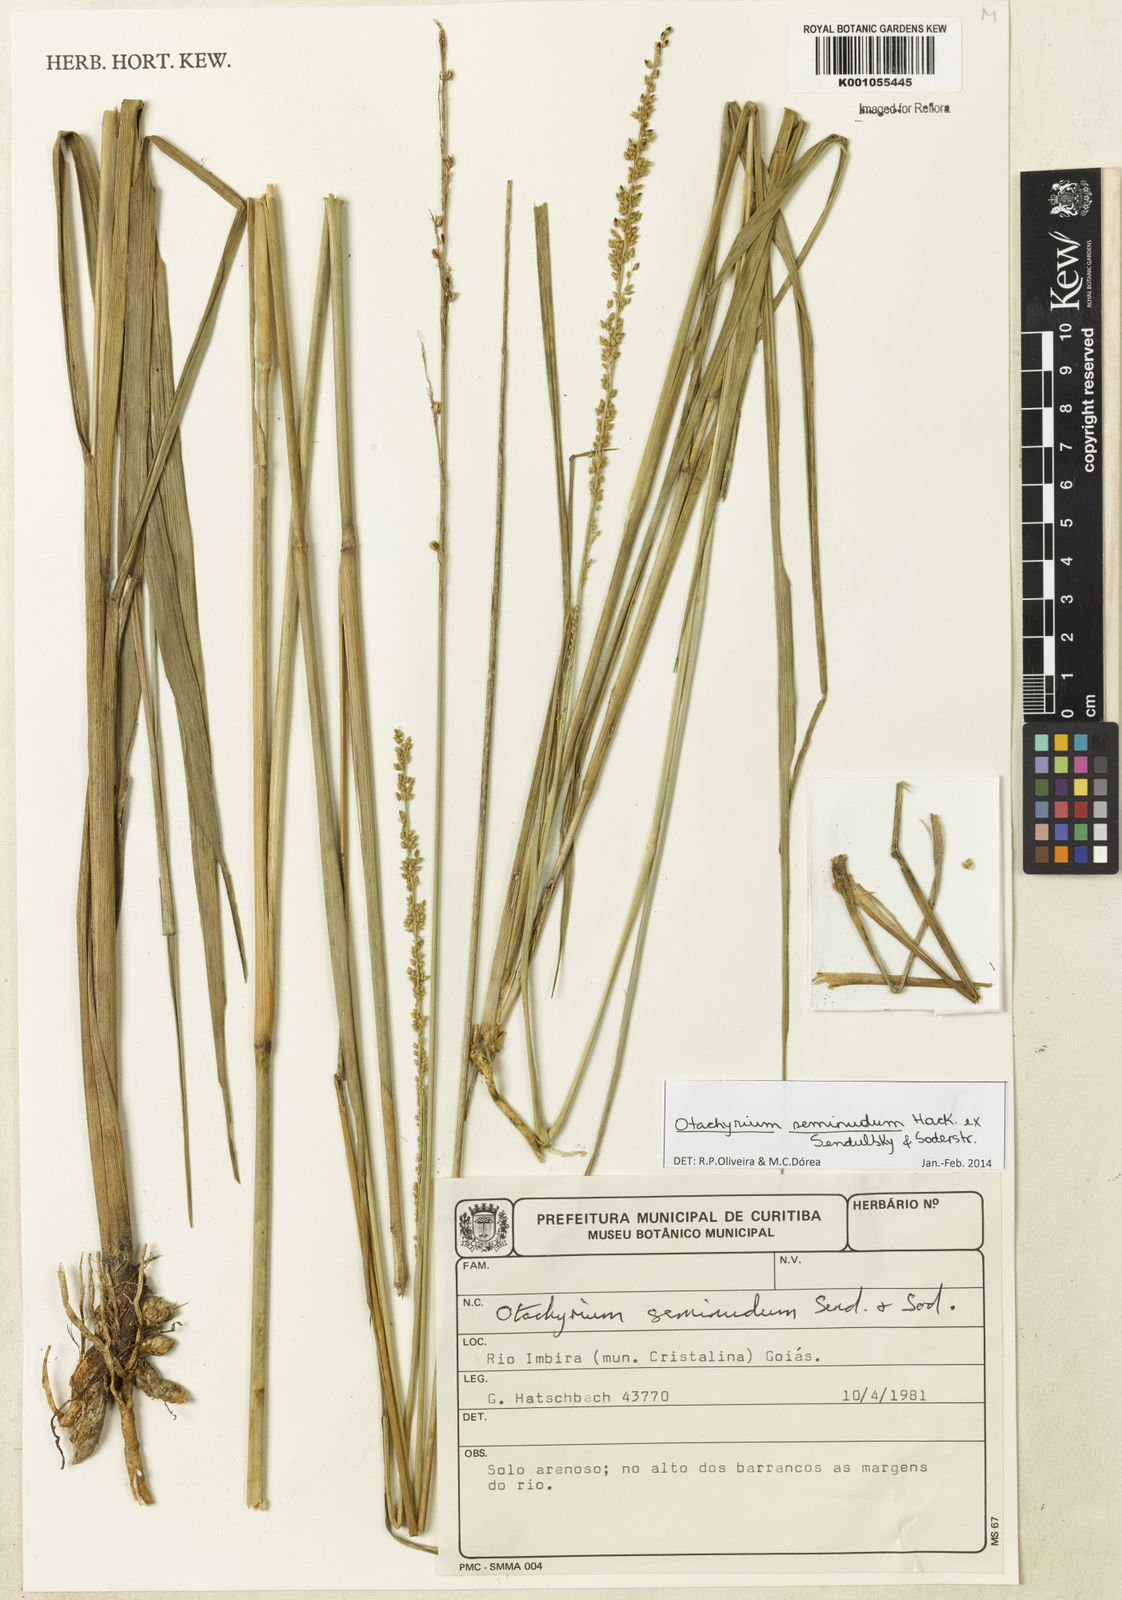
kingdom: Plantae
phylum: Tracheophyta
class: Liliopsida
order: Poales
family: Poaceae
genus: Otachyrium
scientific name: Otachyrium seminudum
